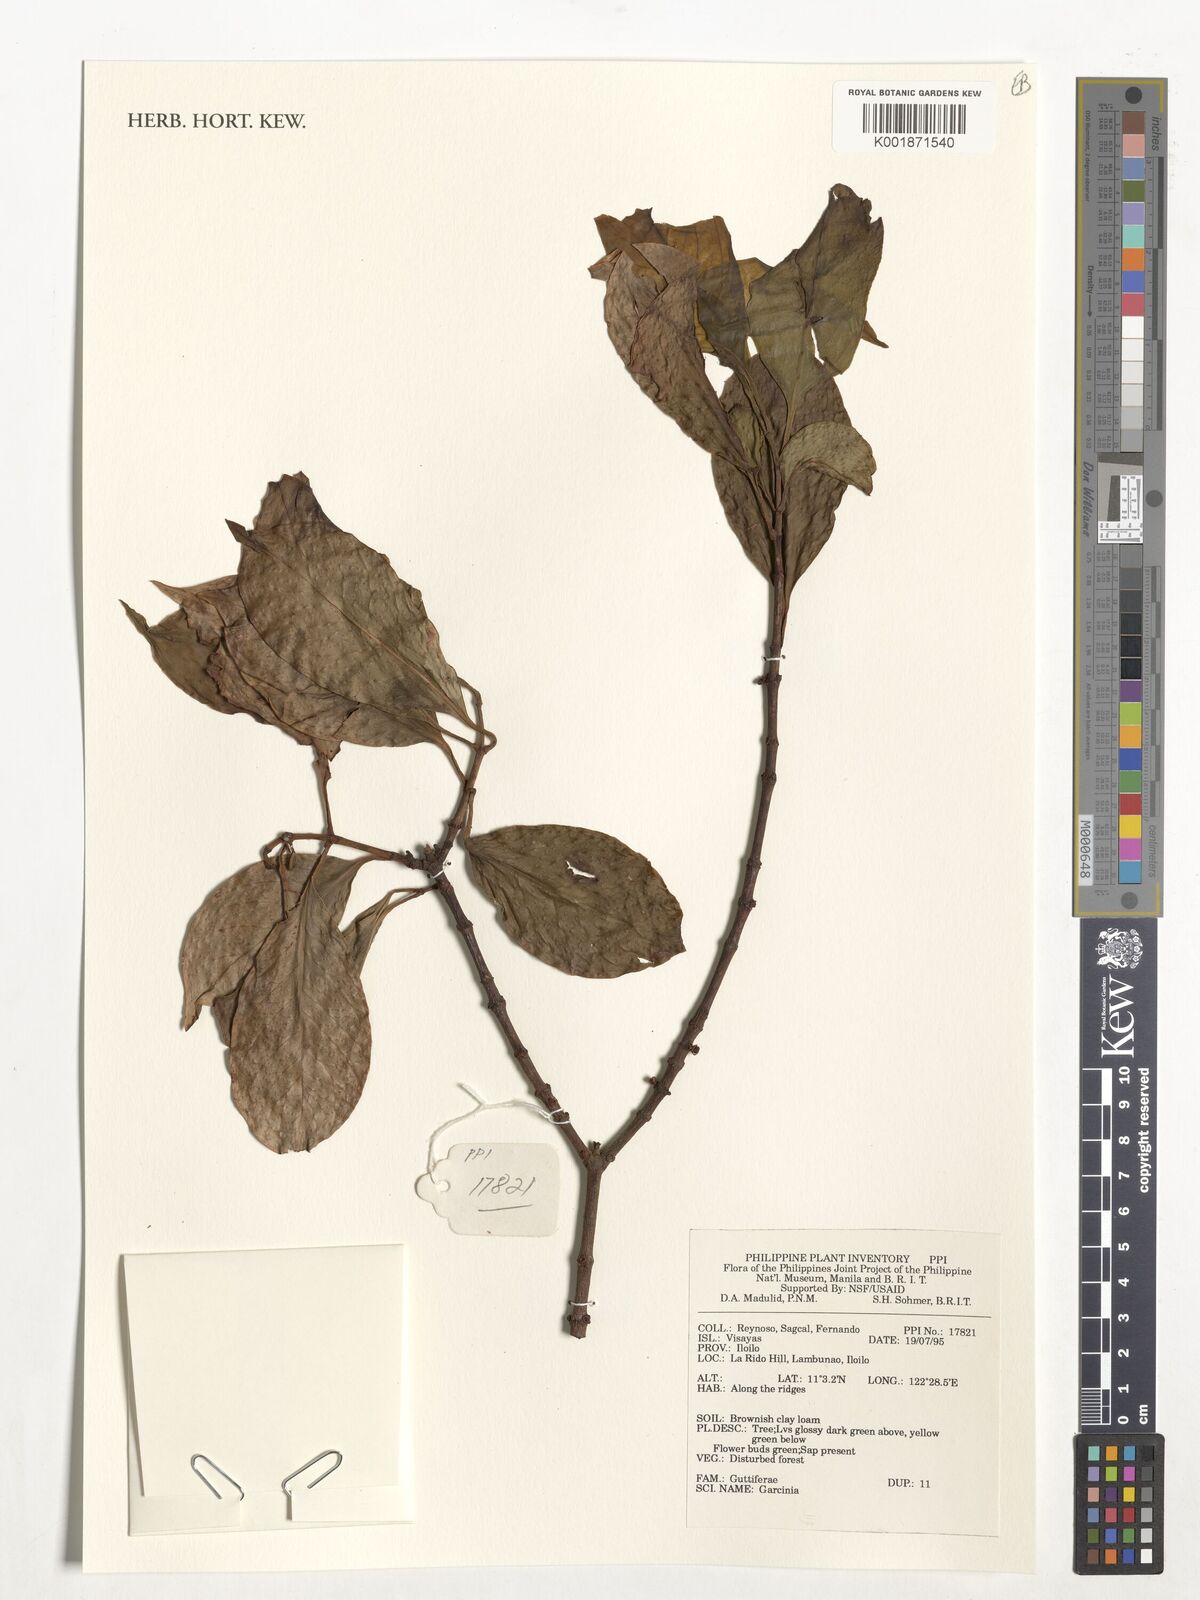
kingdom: Plantae
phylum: Tracheophyta
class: Magnoliopsida
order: Malpighiales
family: Clusiaceae
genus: Garcinia
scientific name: Garcinia
